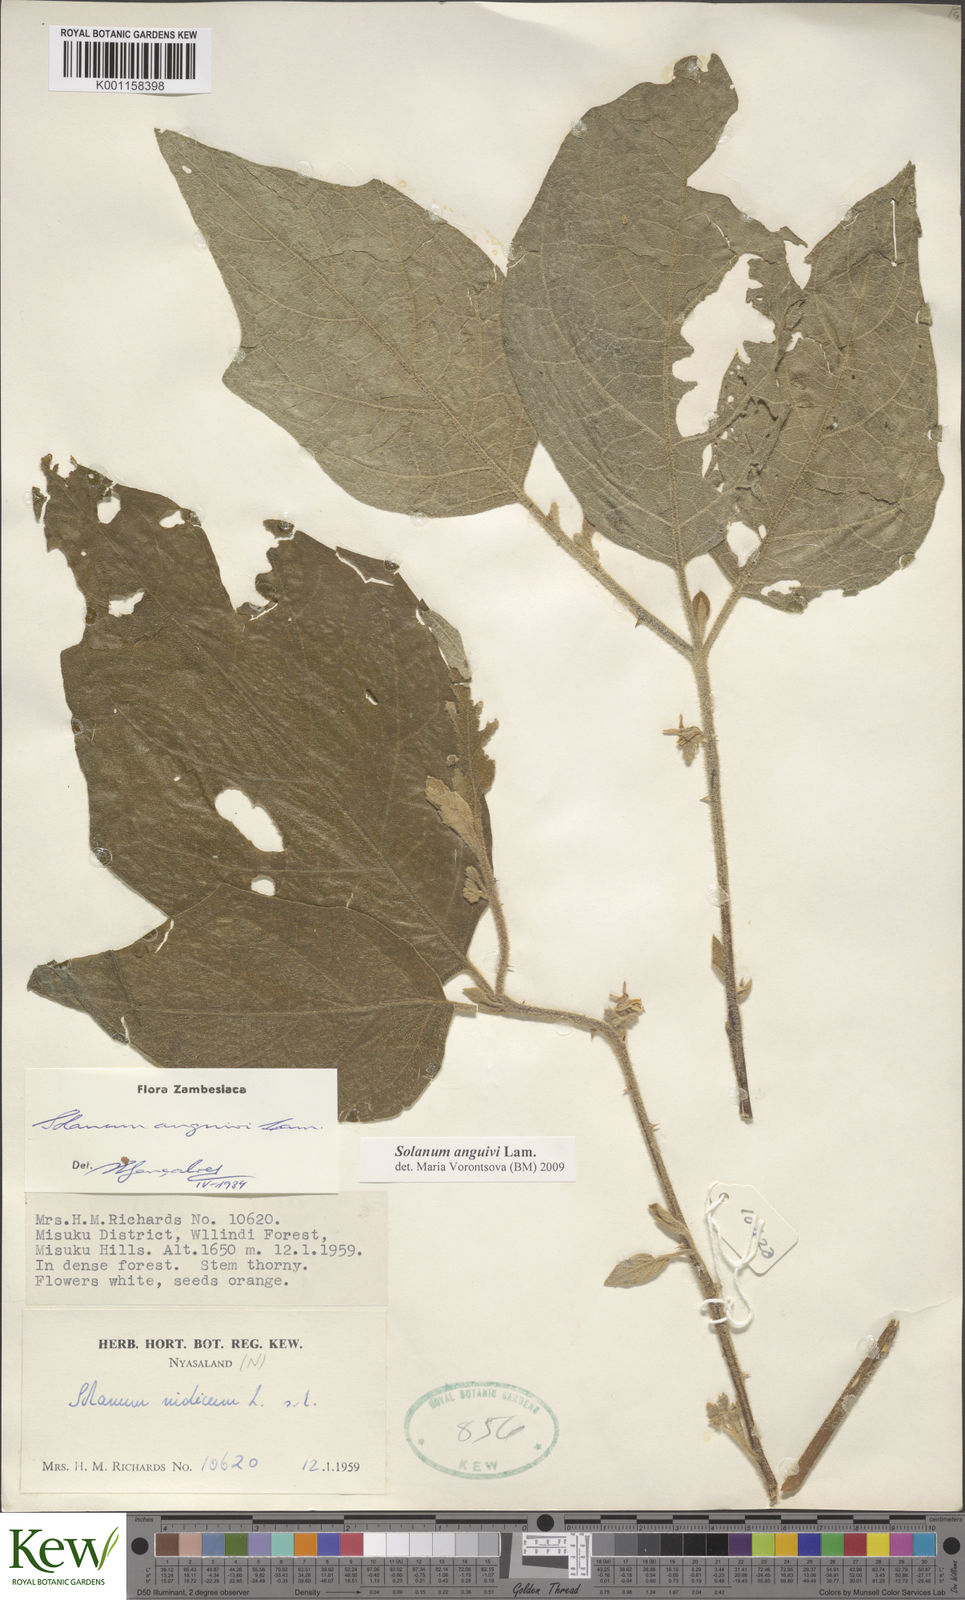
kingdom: Plantae
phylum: Tracheophyta
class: Magnoliopsida
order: Solanales
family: Solanaceae
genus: Solanum
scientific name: Solanum anguivi
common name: Forest bitterberry
